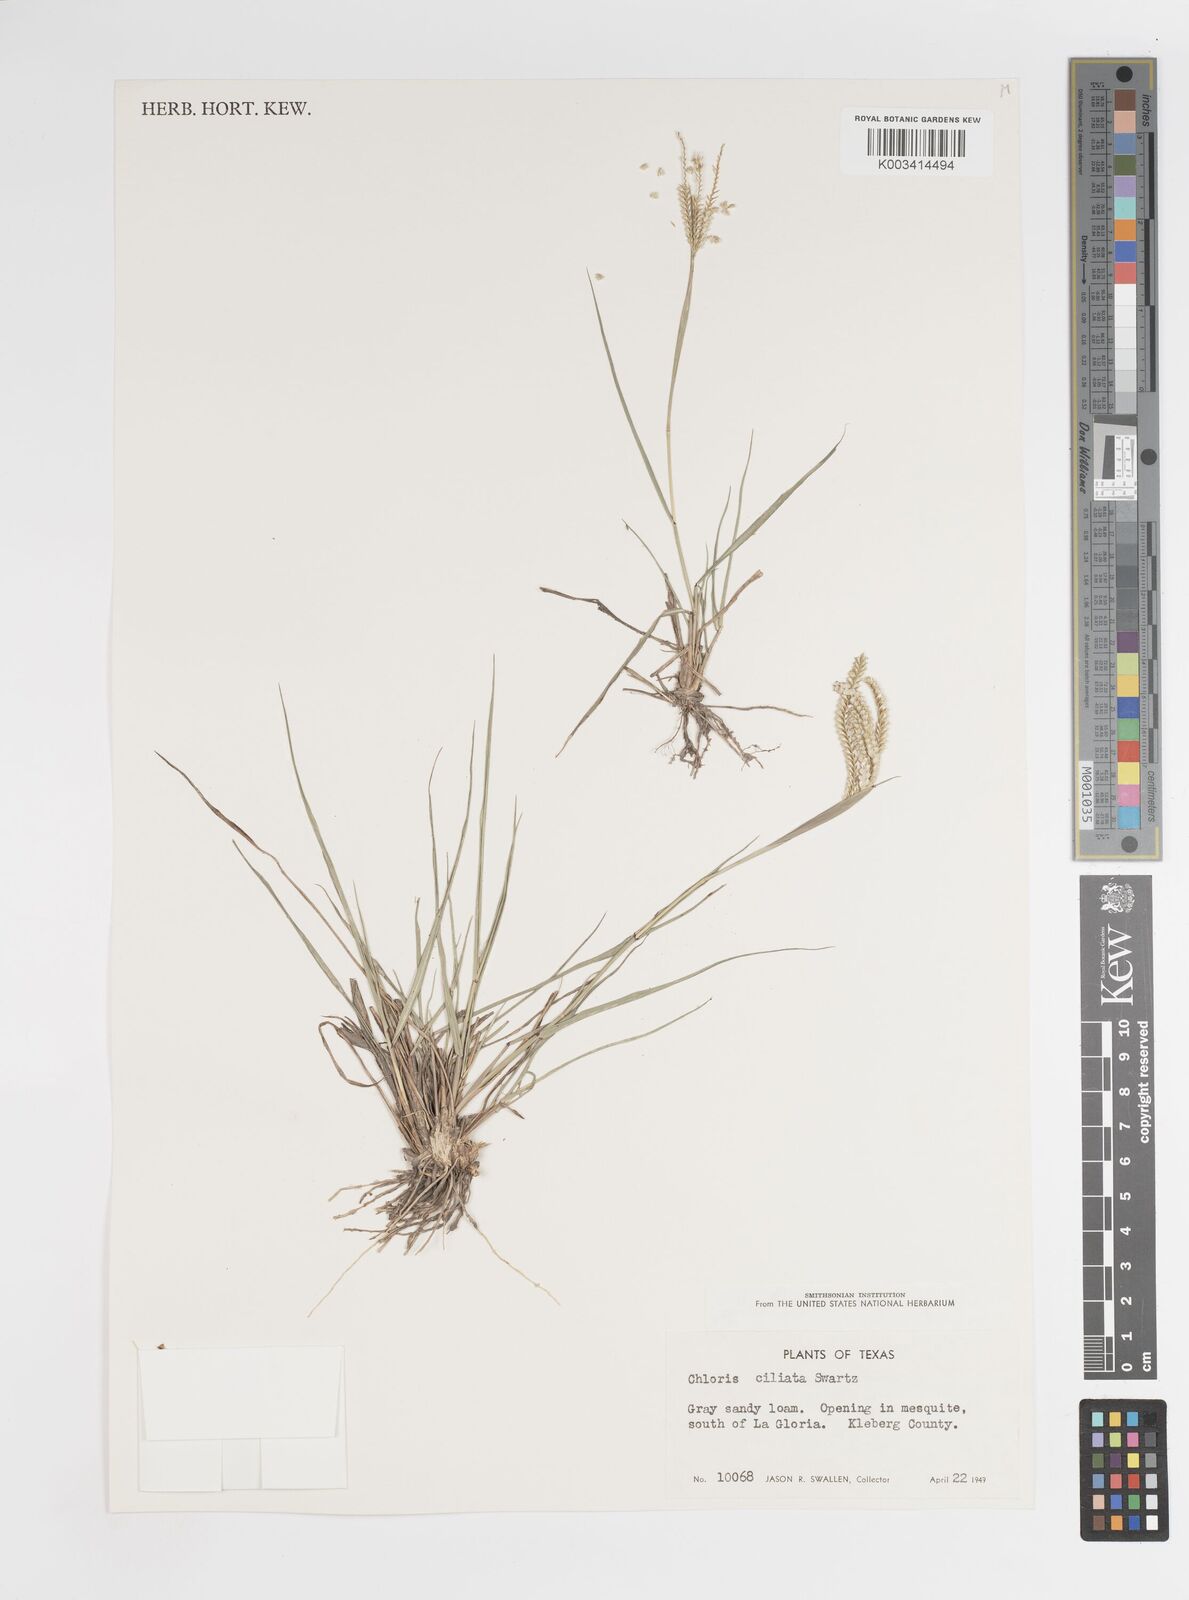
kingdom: Plantae
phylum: Tracheophyta
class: Liliopsida
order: Poales
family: Poaceae
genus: Stapfochloa
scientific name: Stapfochloa ciliata
